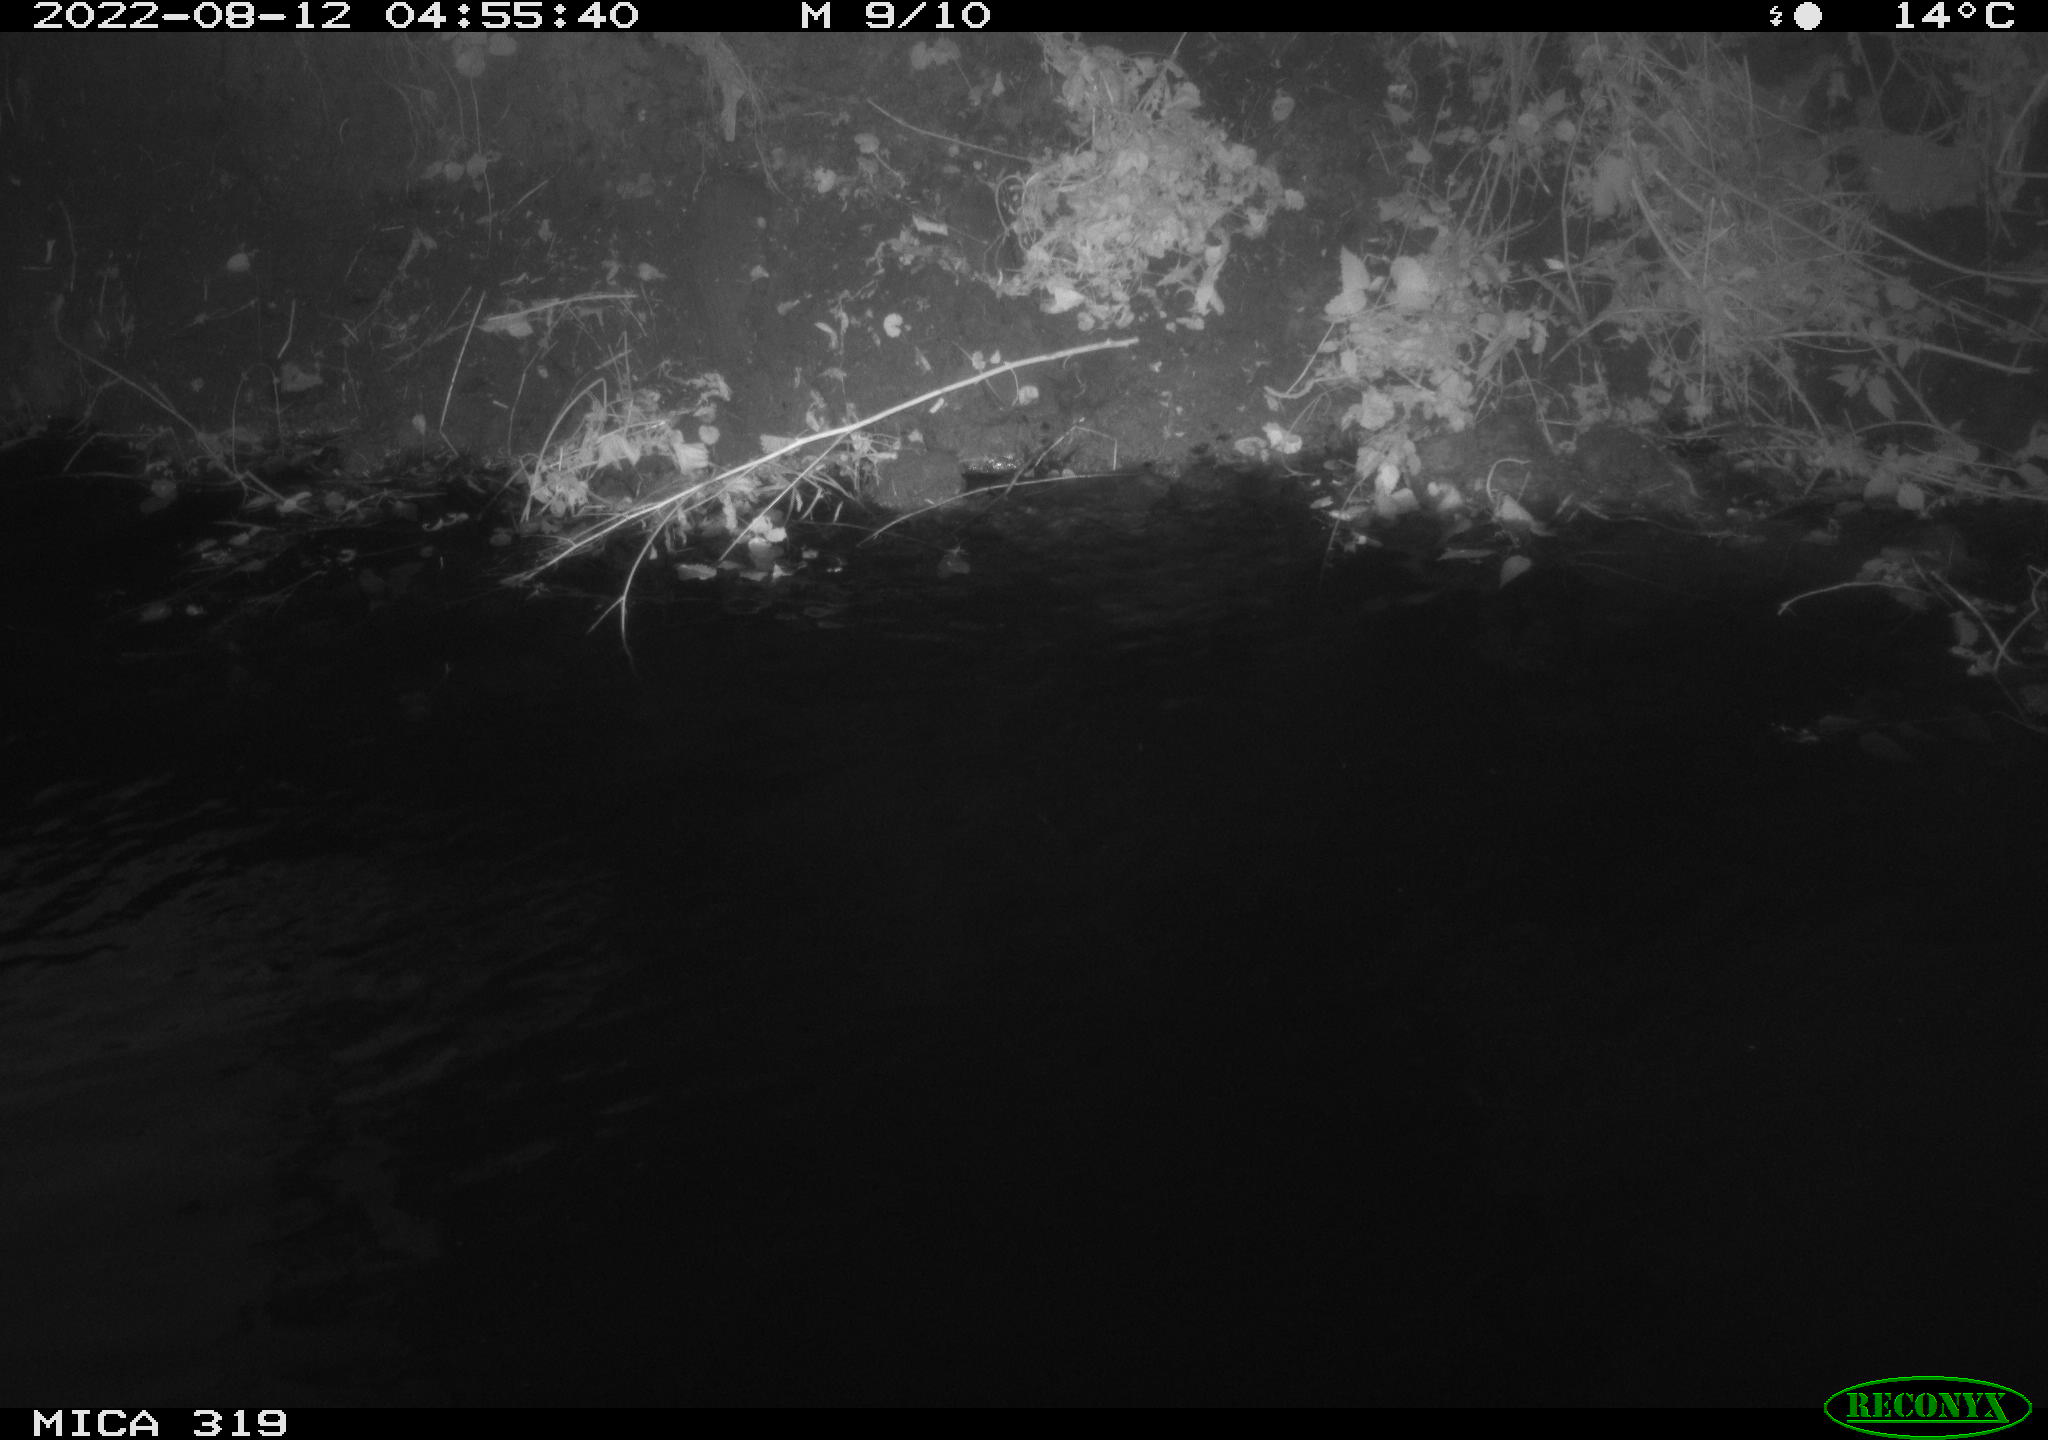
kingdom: Animalia
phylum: Chordata
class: Aves
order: Anseriformes
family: Anatidae
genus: Anas
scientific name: Anas
